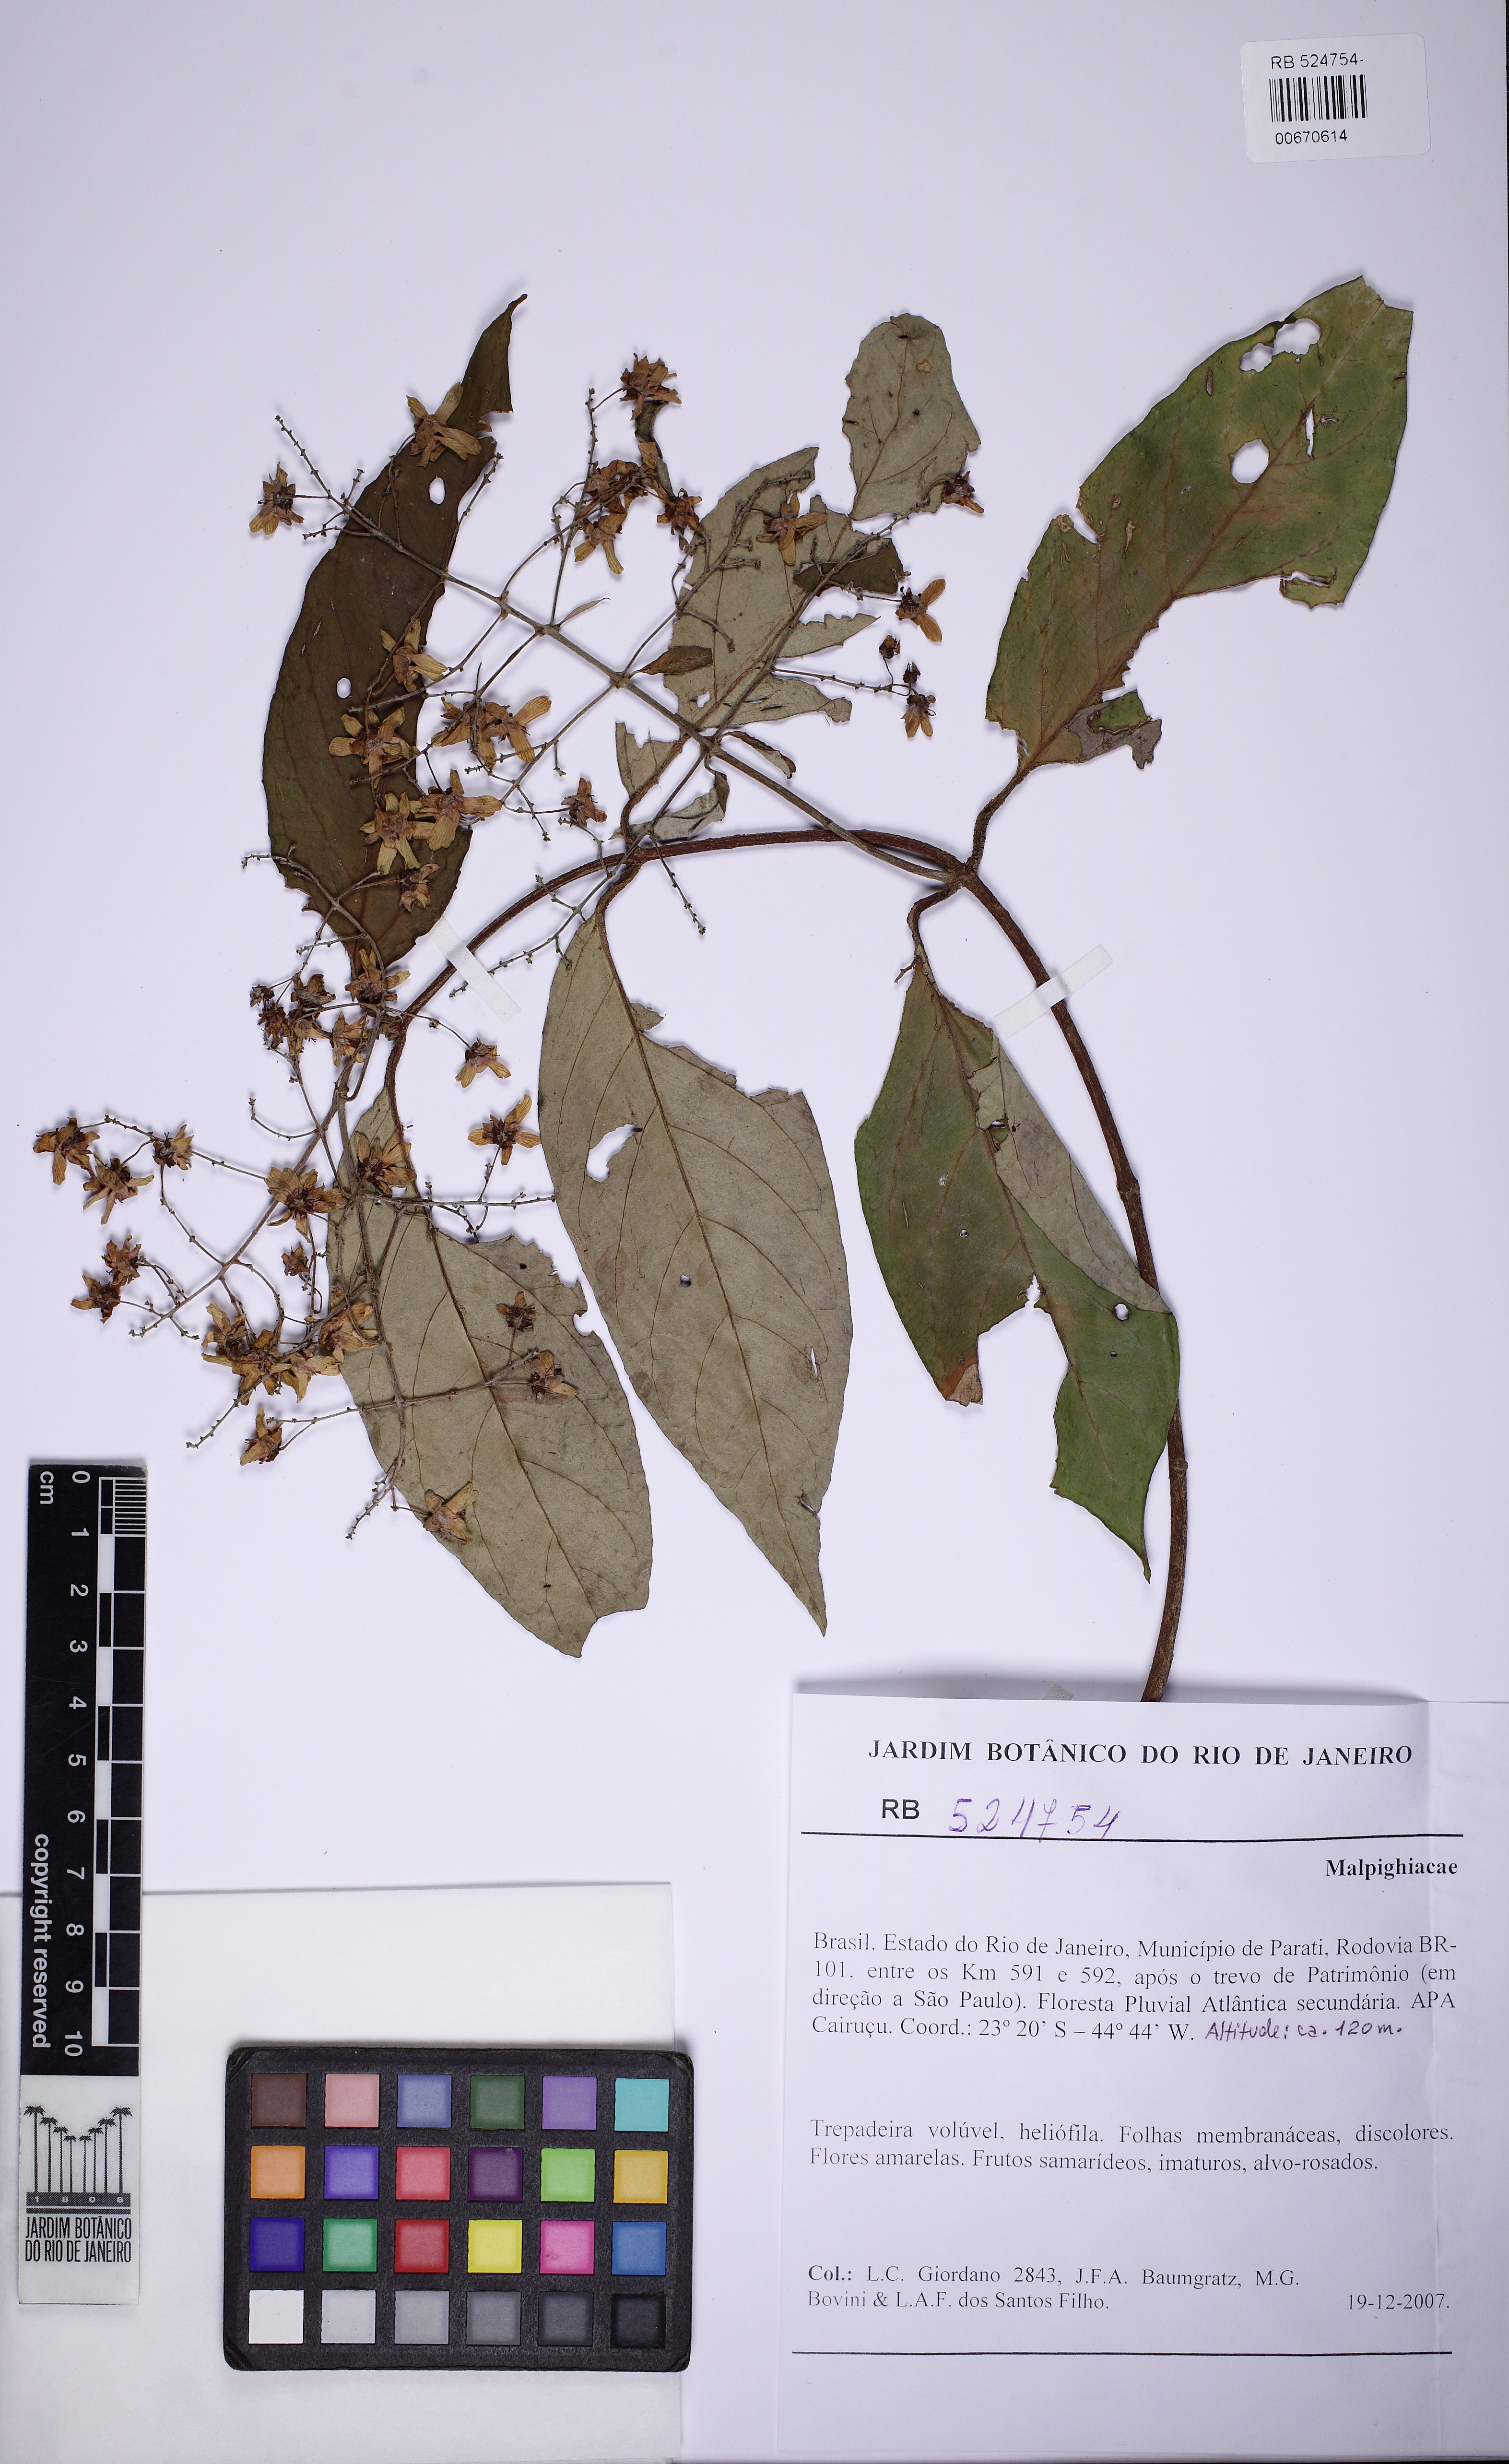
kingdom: Plantae
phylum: Tracheophyta
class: Magnoliopsida
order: Malpighiales
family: Malpighiaceae
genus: Niedenzuella
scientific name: Niedenzuella poeppigiana
